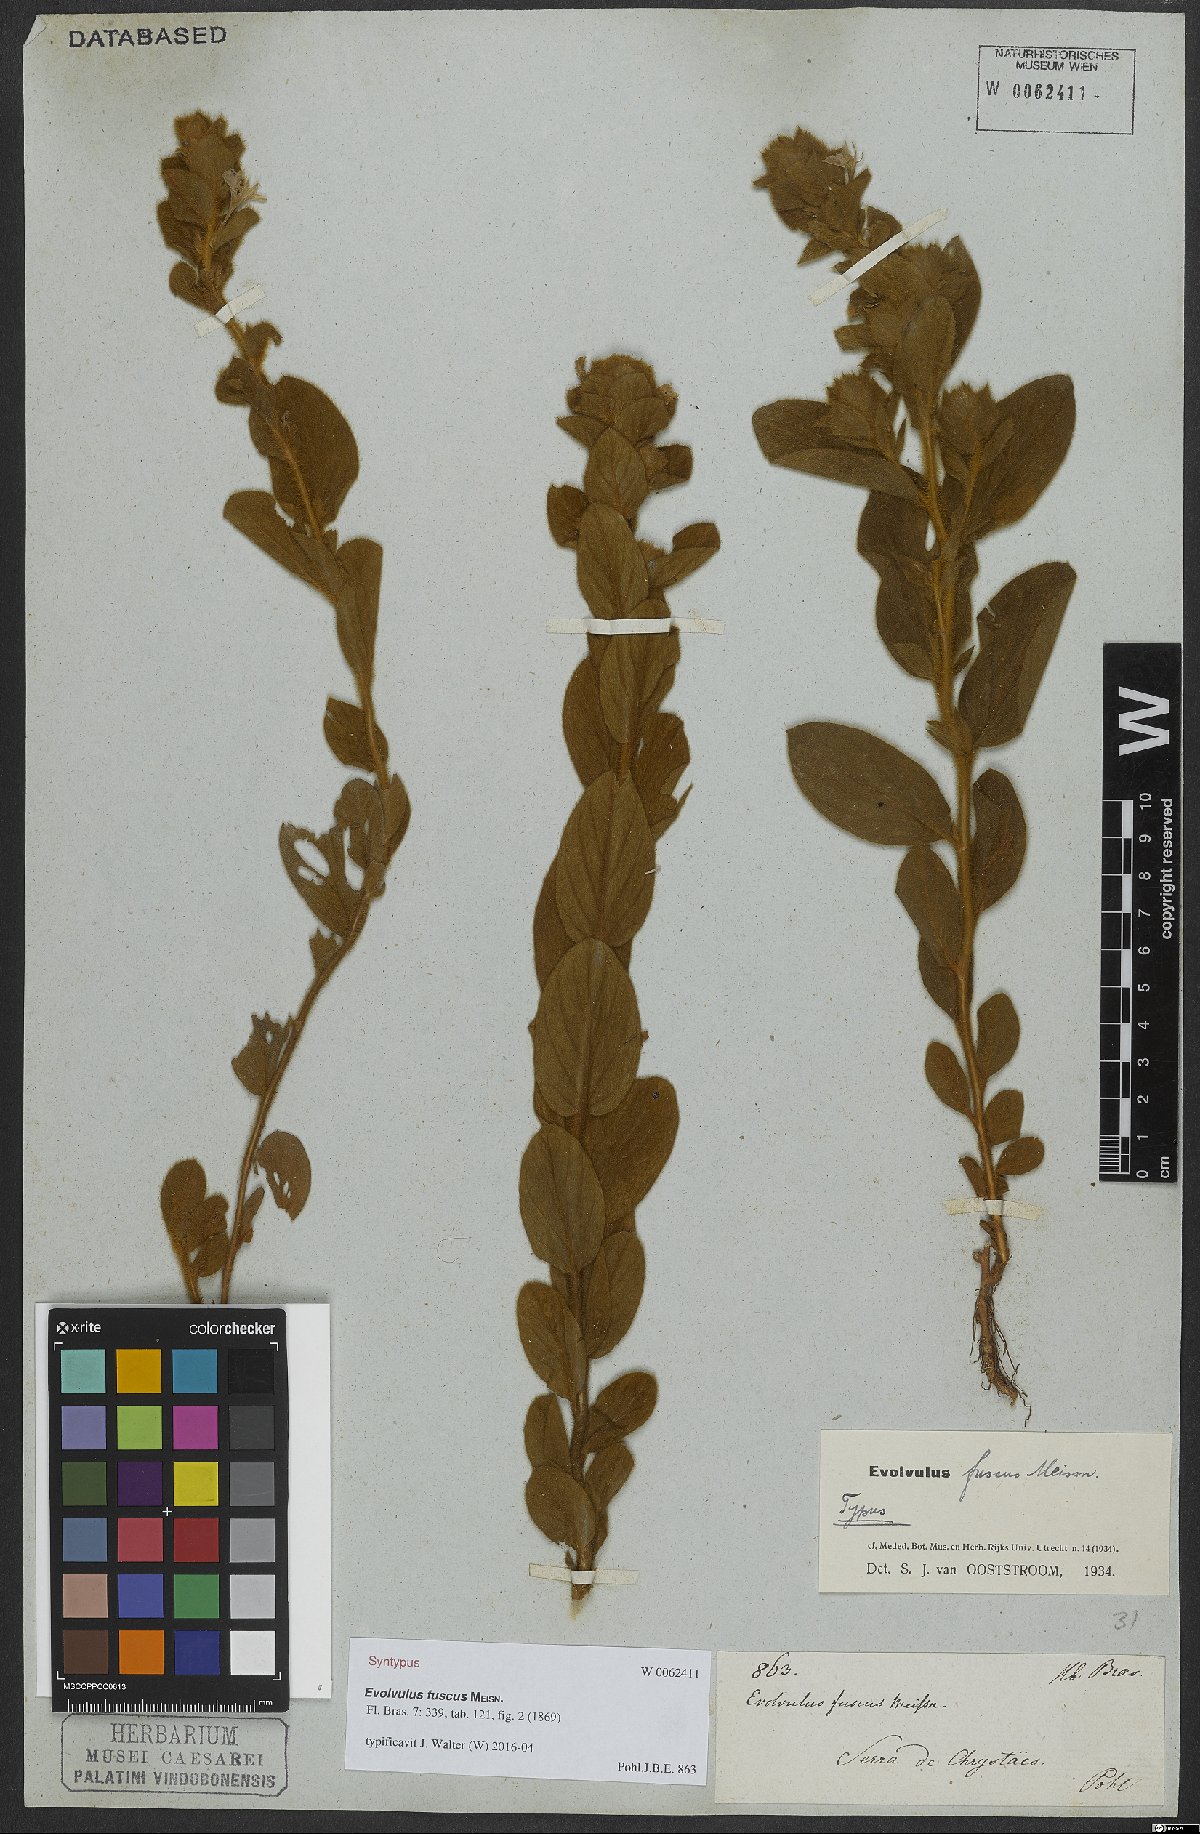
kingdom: Plantae
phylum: Tracheophyta
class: Magnoliopsida
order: Solanales
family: Convolvulaceae
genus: Evolvulus
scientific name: Evolvulus fuscus
